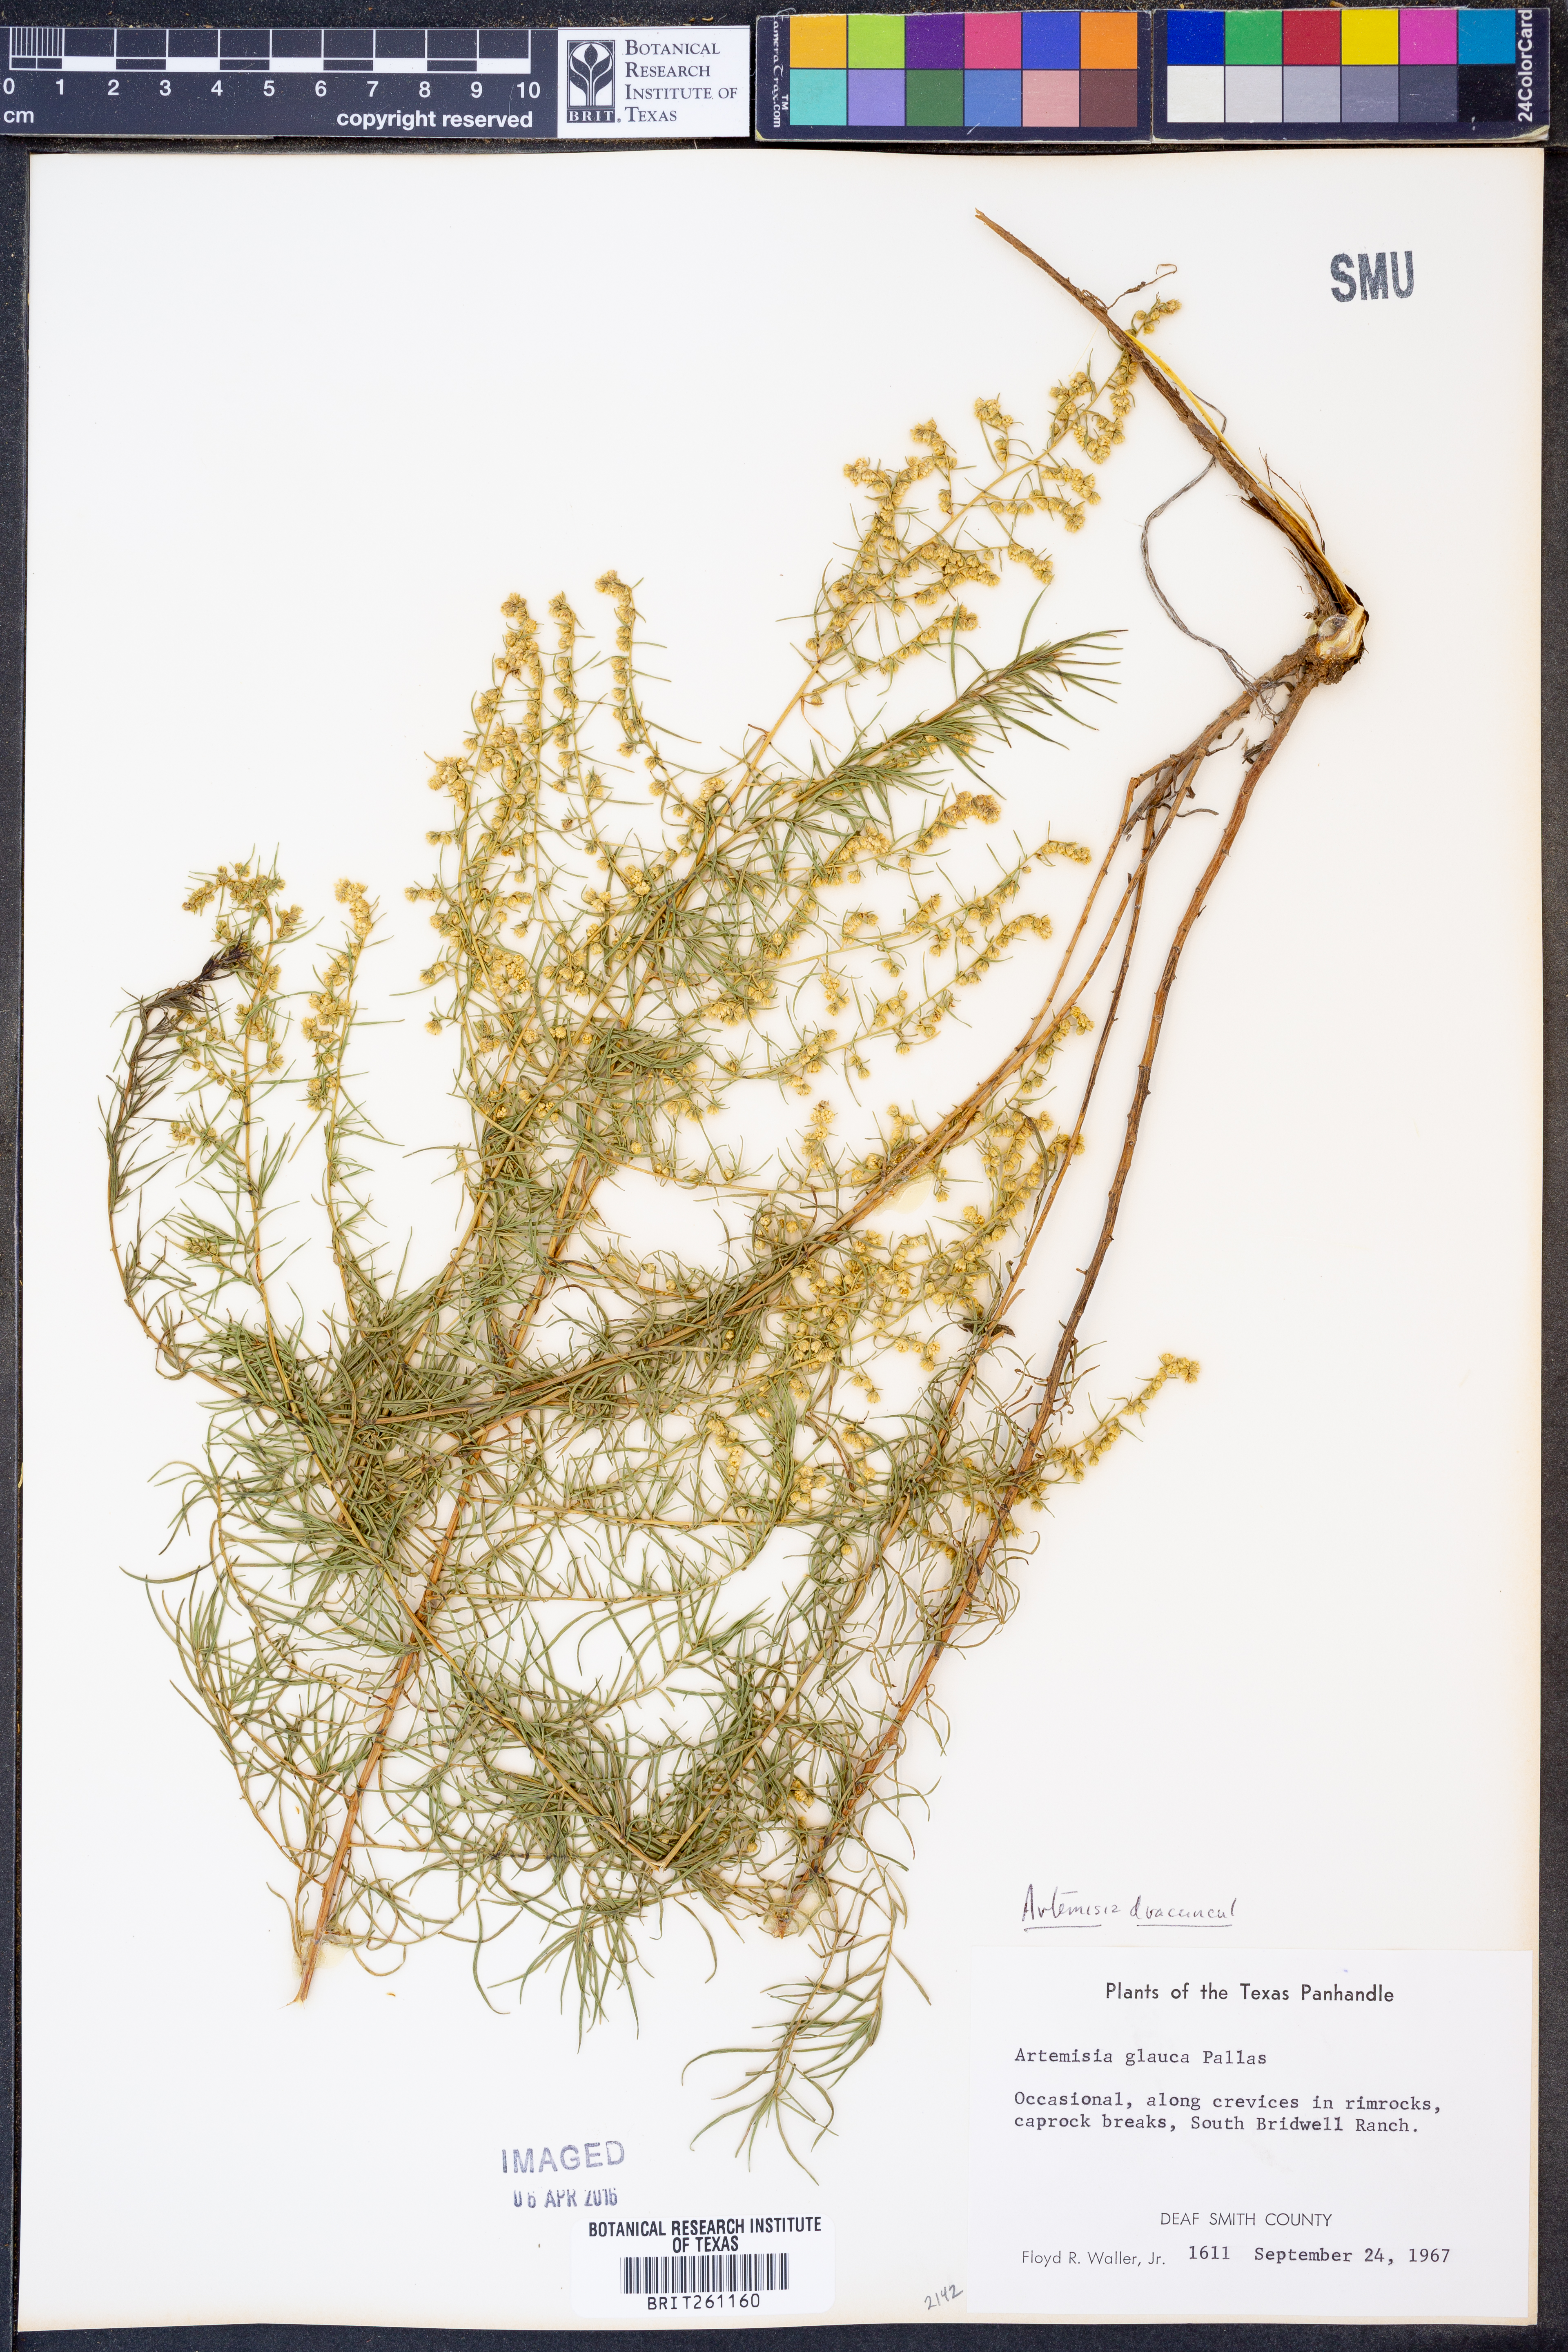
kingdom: Plantae
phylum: Tracheophyta
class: Magnoliopsida
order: Asterales
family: Asteraceae
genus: Artemisia
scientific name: Artemisia dracunculus
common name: Tarragon
